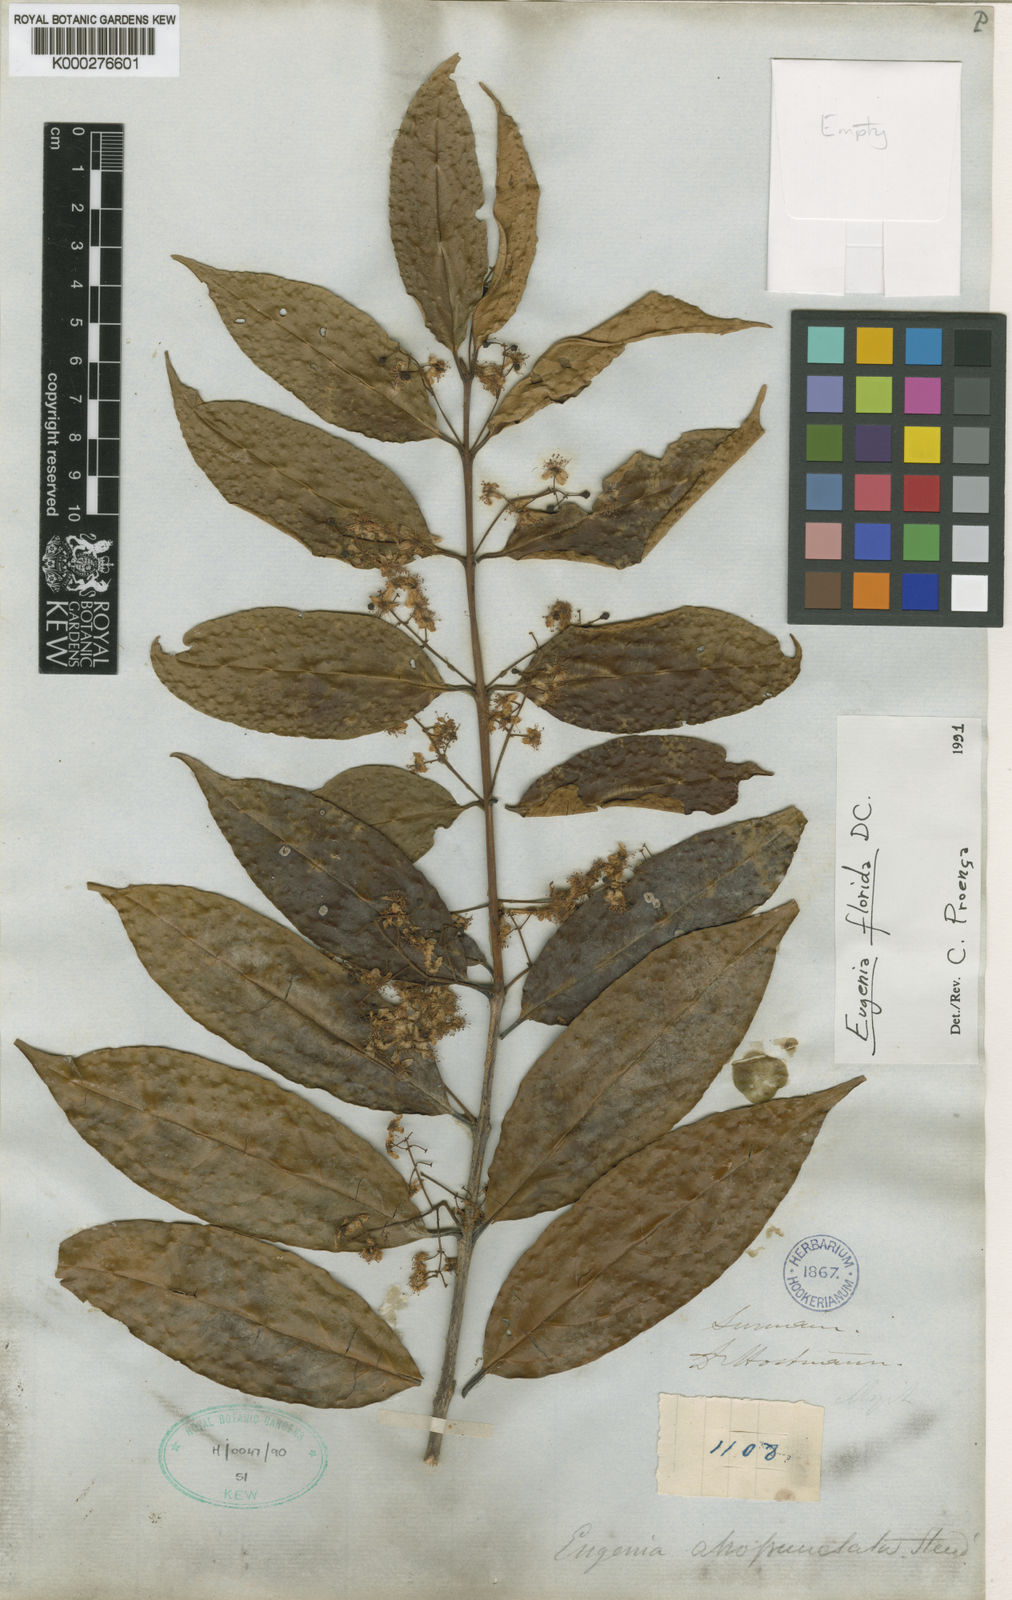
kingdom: Plantae
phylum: Tracheophyta
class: Magnoliopsida
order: Myrtales
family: Myrtaceae
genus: Eugenia
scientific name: Eugenia florida
